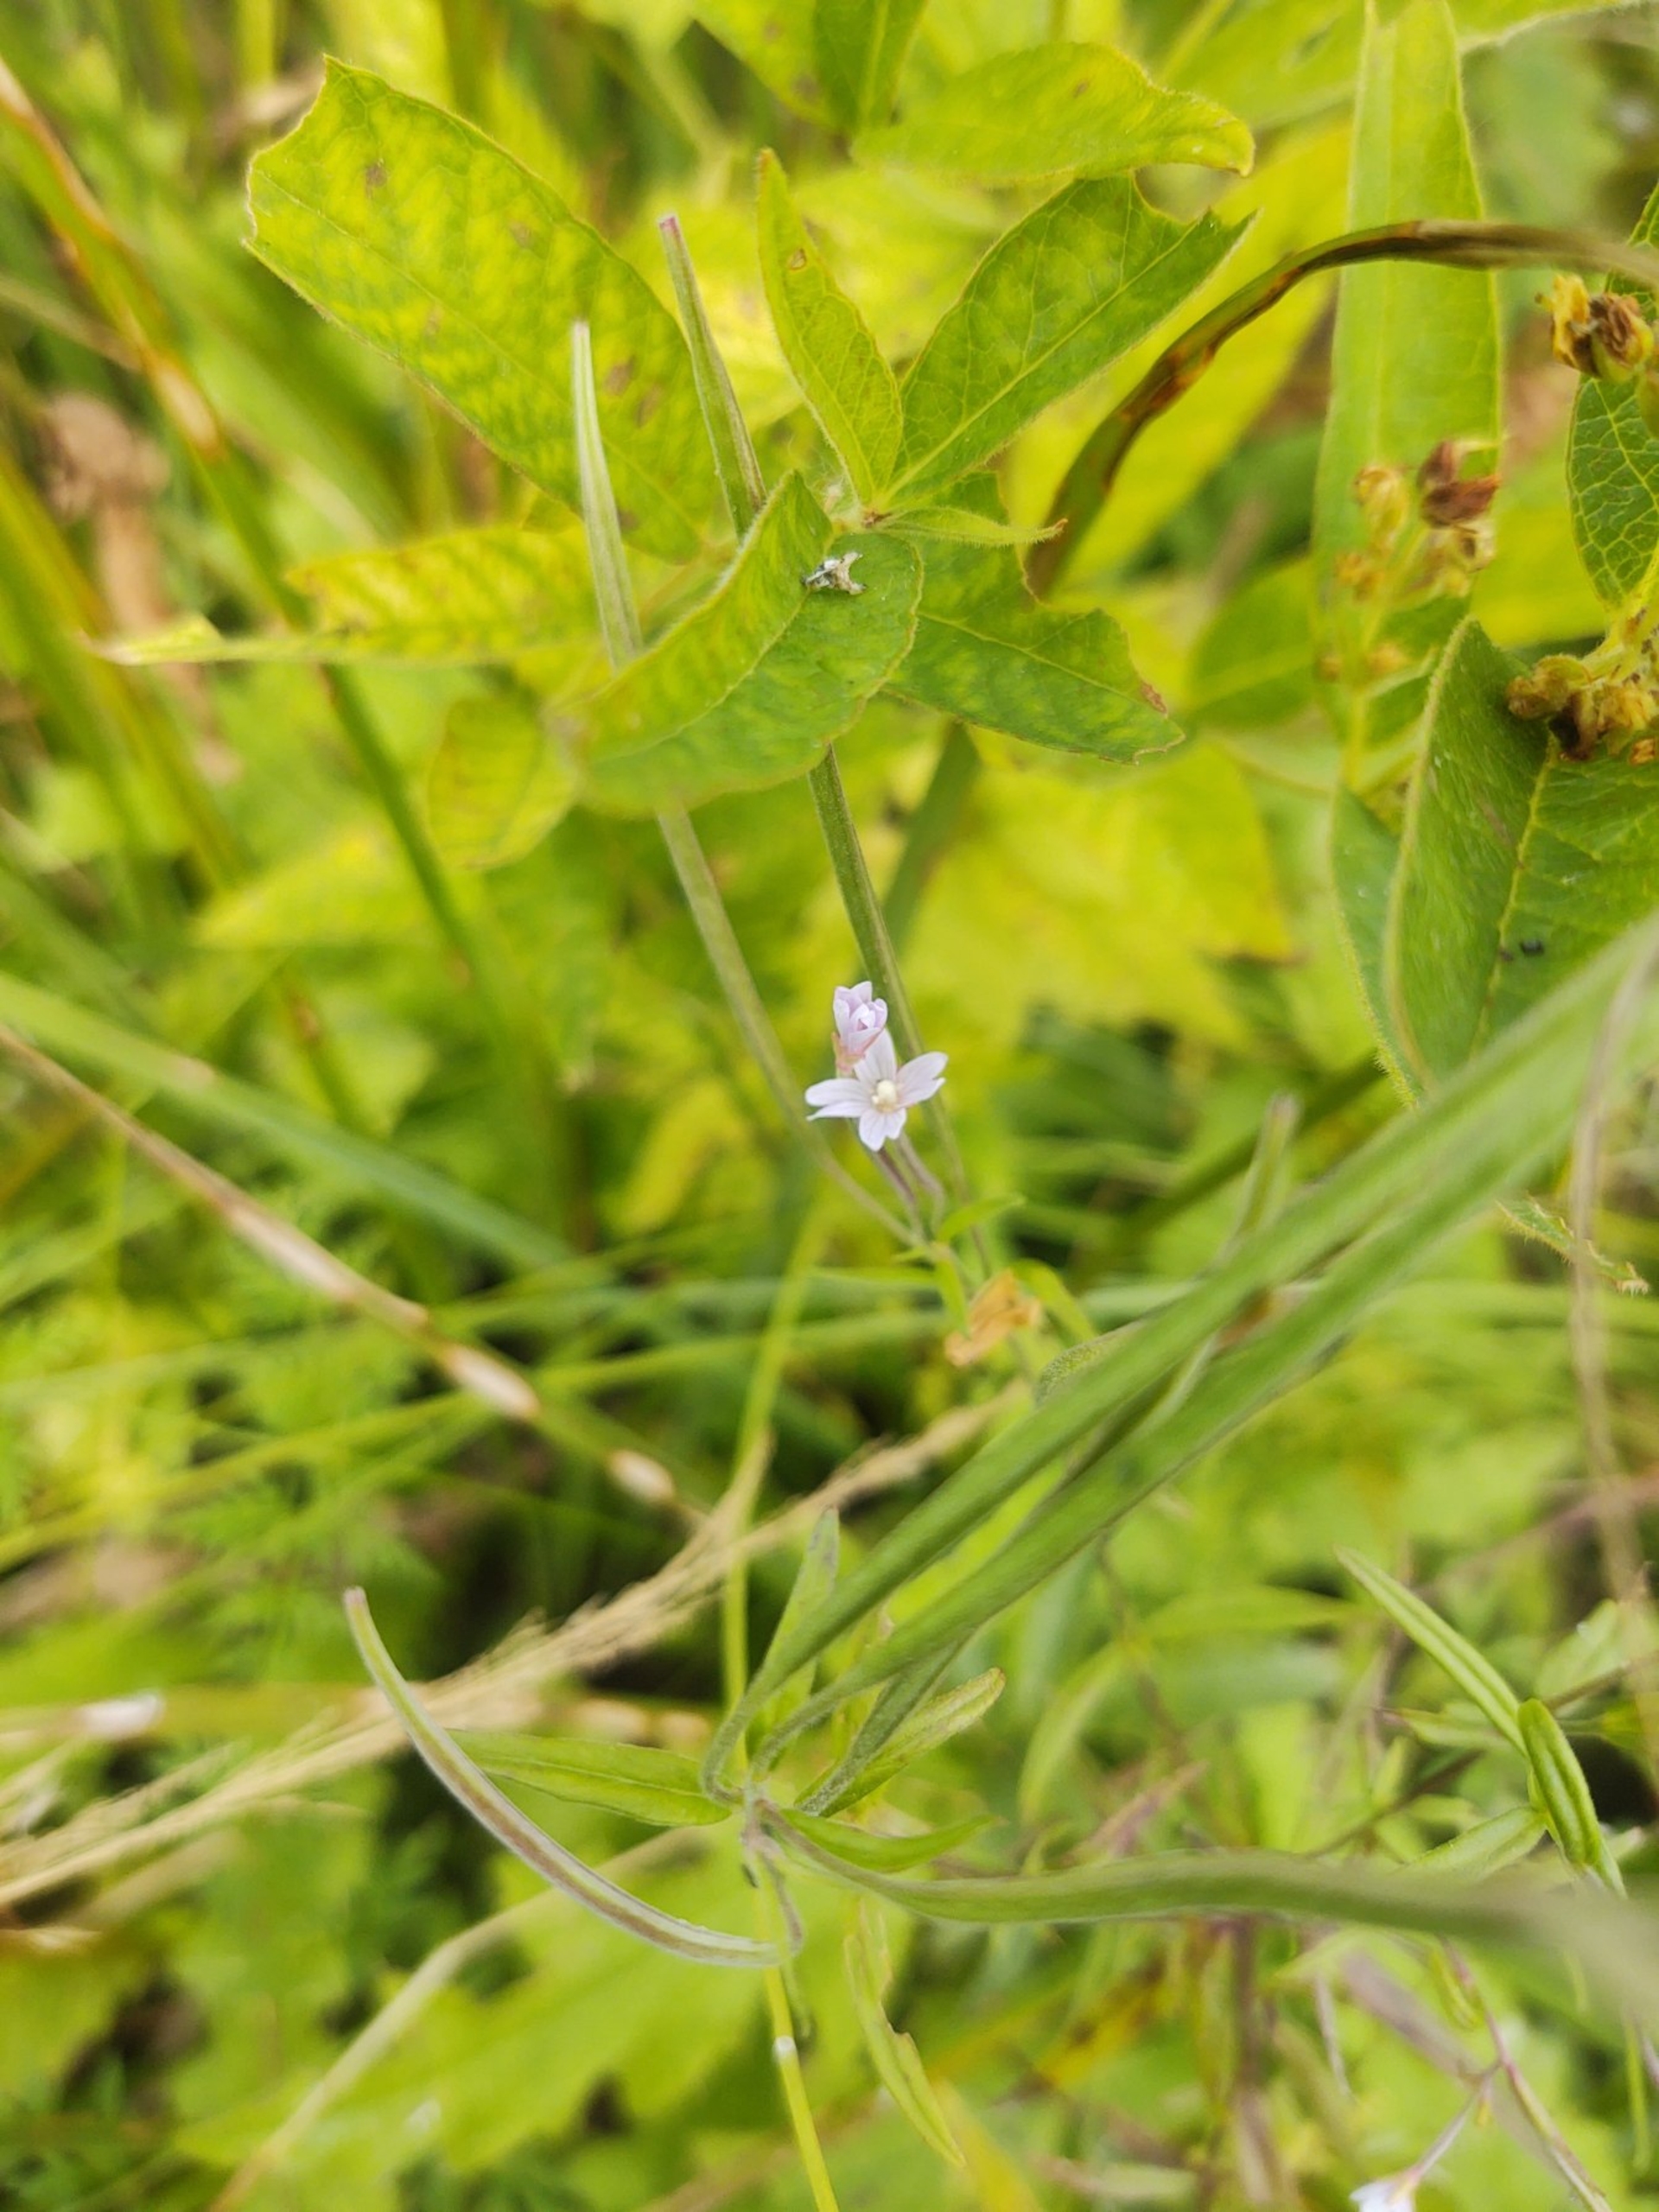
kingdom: Plantae
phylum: Tracheophyta
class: Magnoliopsida
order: Myrtales
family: Onagraceae
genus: Epilobium
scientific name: Epilobium palustre
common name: Kær-dueurt
